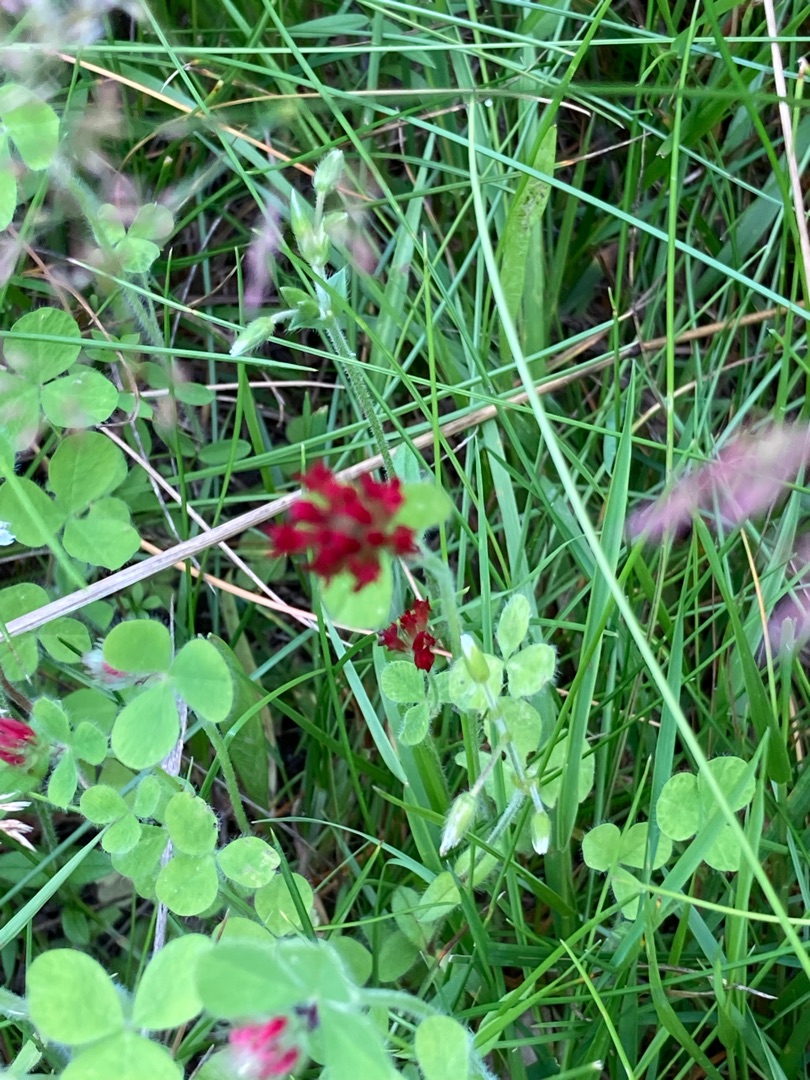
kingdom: Plantae
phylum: Tracheophyta
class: Magnoliopsida
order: Fabales
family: Fabaceae
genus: Trifolium
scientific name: Trifolium incarnatum
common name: Blod-kløver
